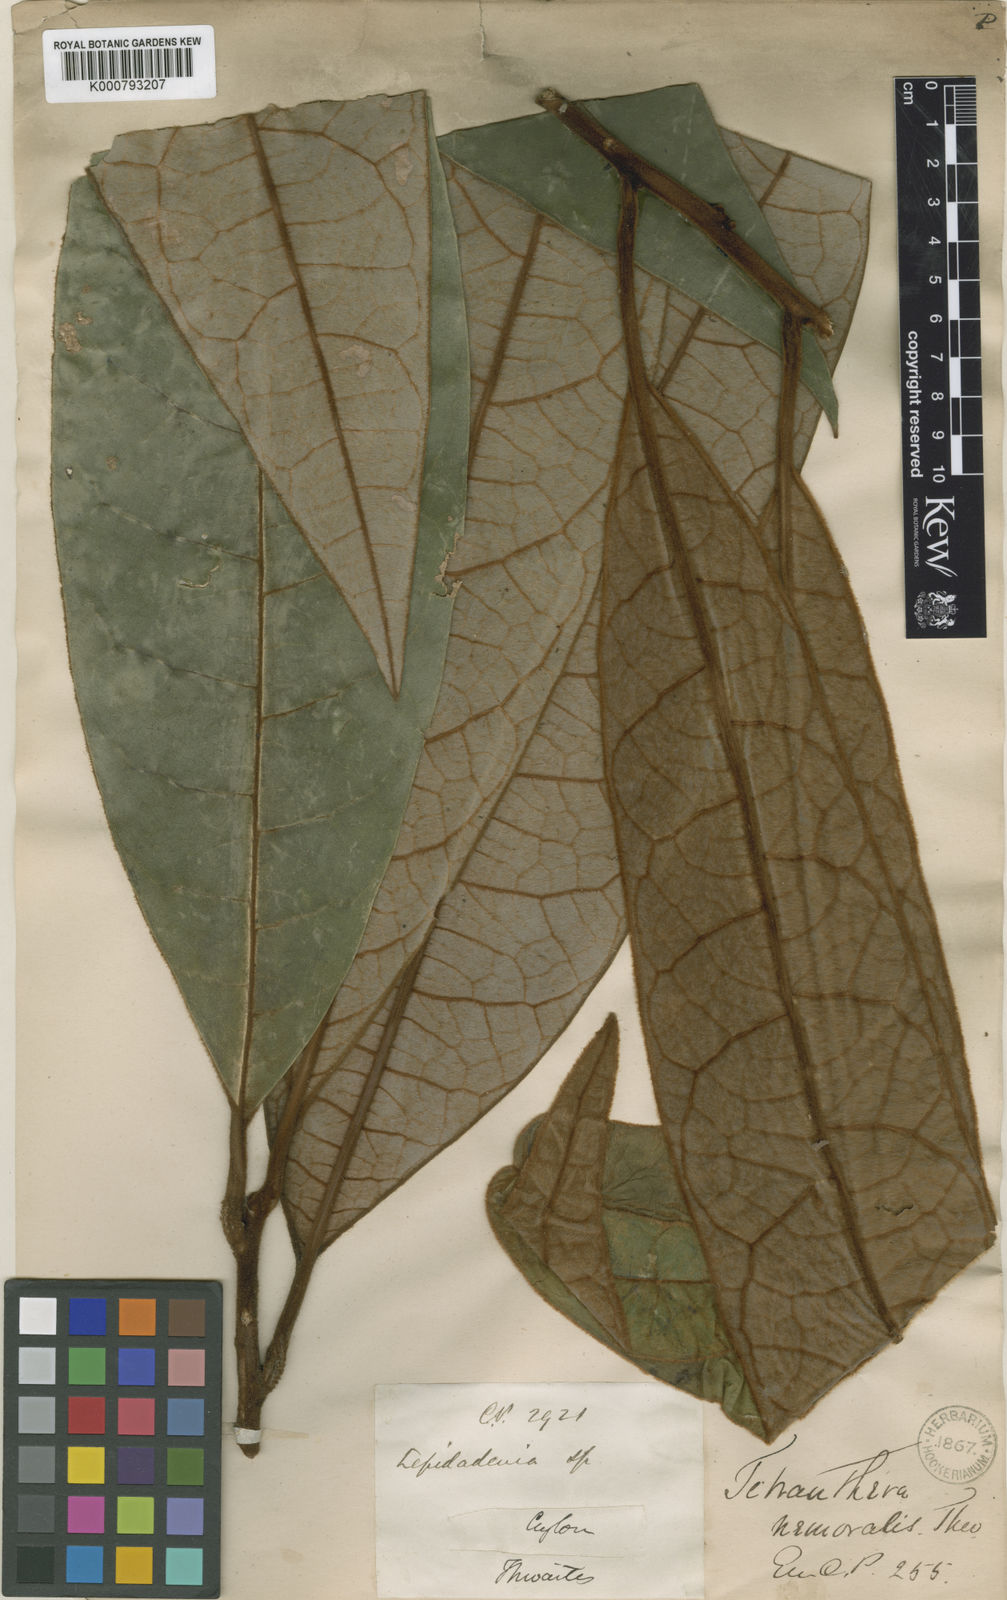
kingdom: Plantae
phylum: Tracheophyta
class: Magnoliopsida
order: Laurales
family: Lauraceae
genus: Litsea
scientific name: Litsea nemoralis
